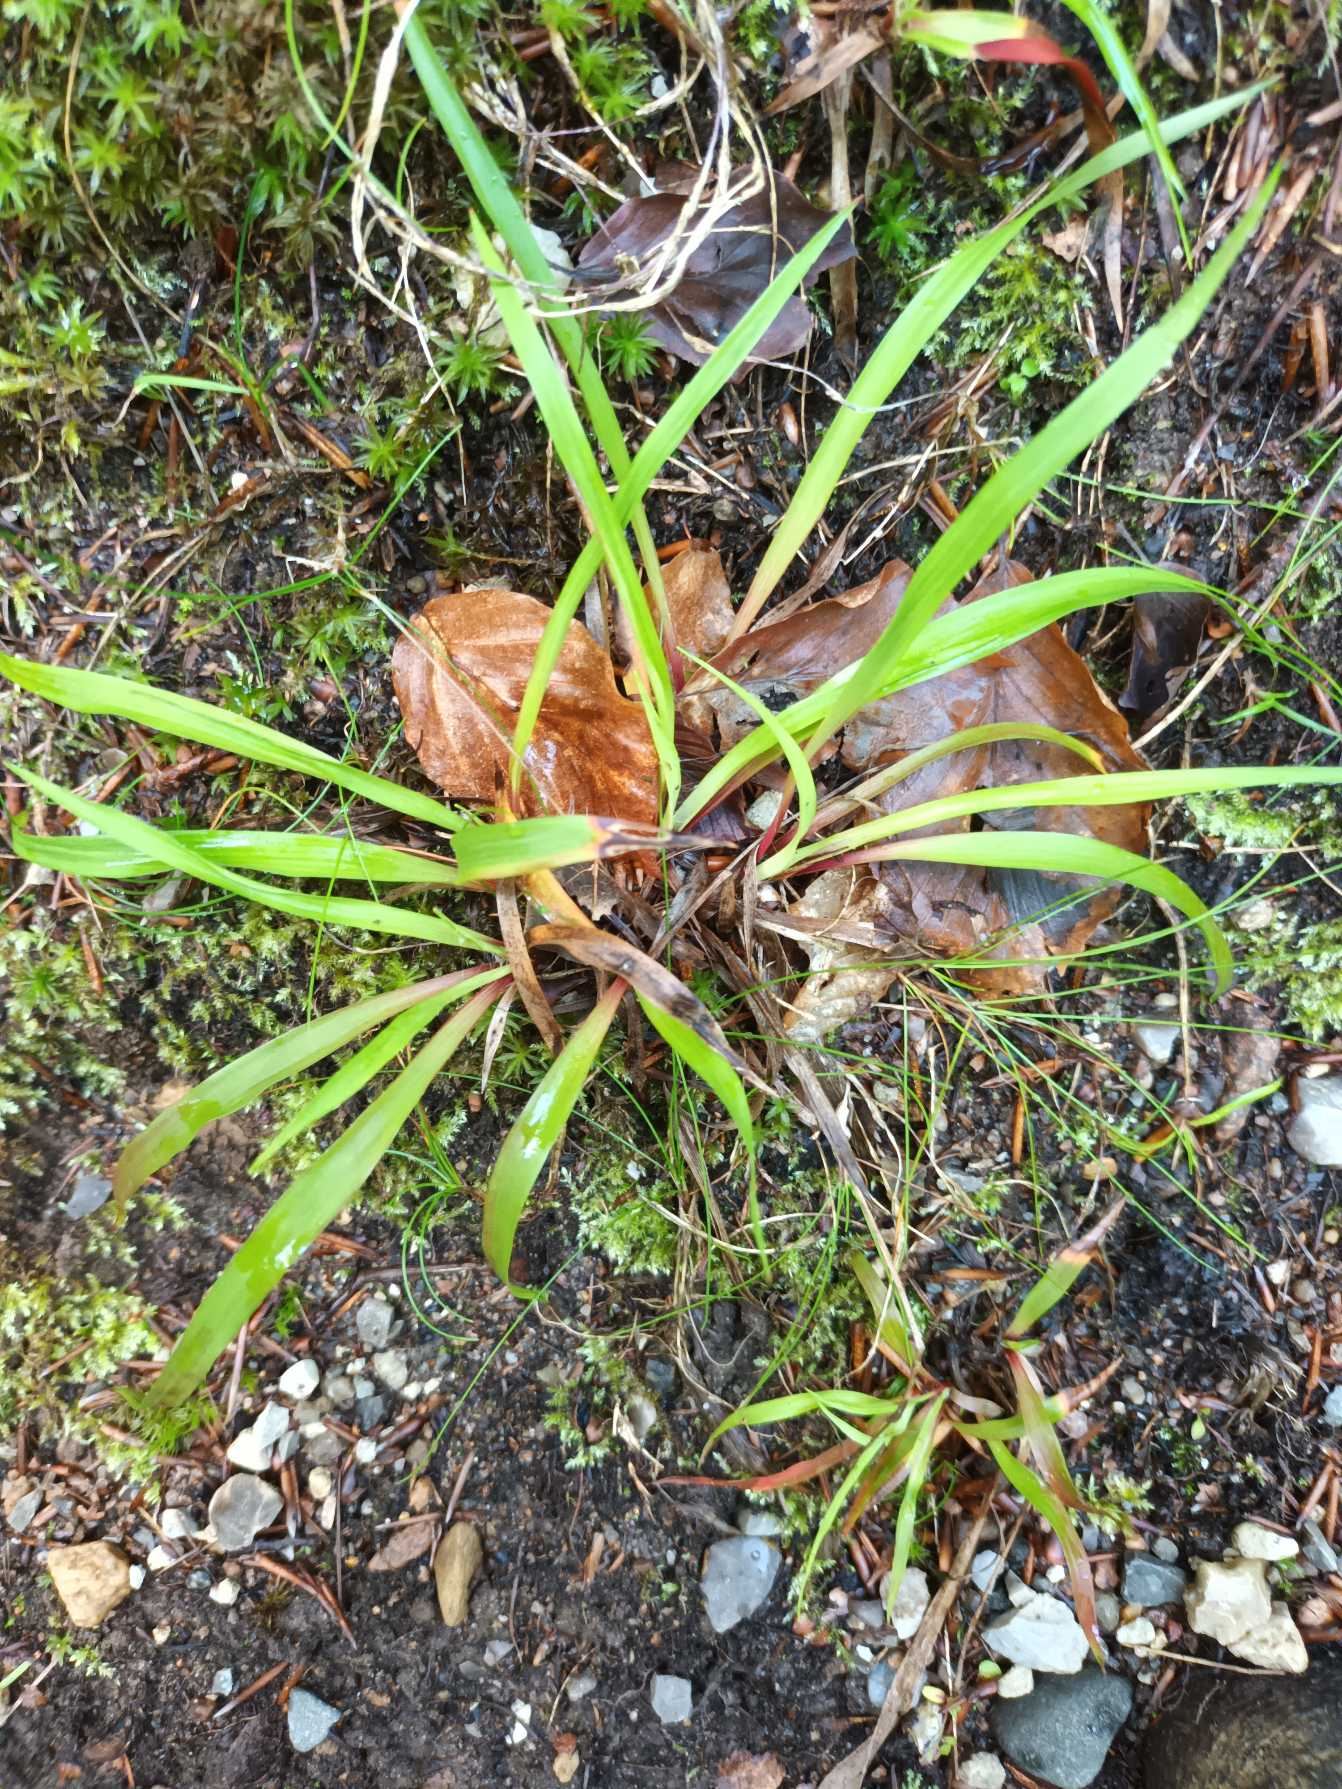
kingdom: Plantae
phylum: Tracheophyta
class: Liliopsida
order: Poales
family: Juncaceae
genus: Luzula
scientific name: Luzula pilosa
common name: Håret frytle
